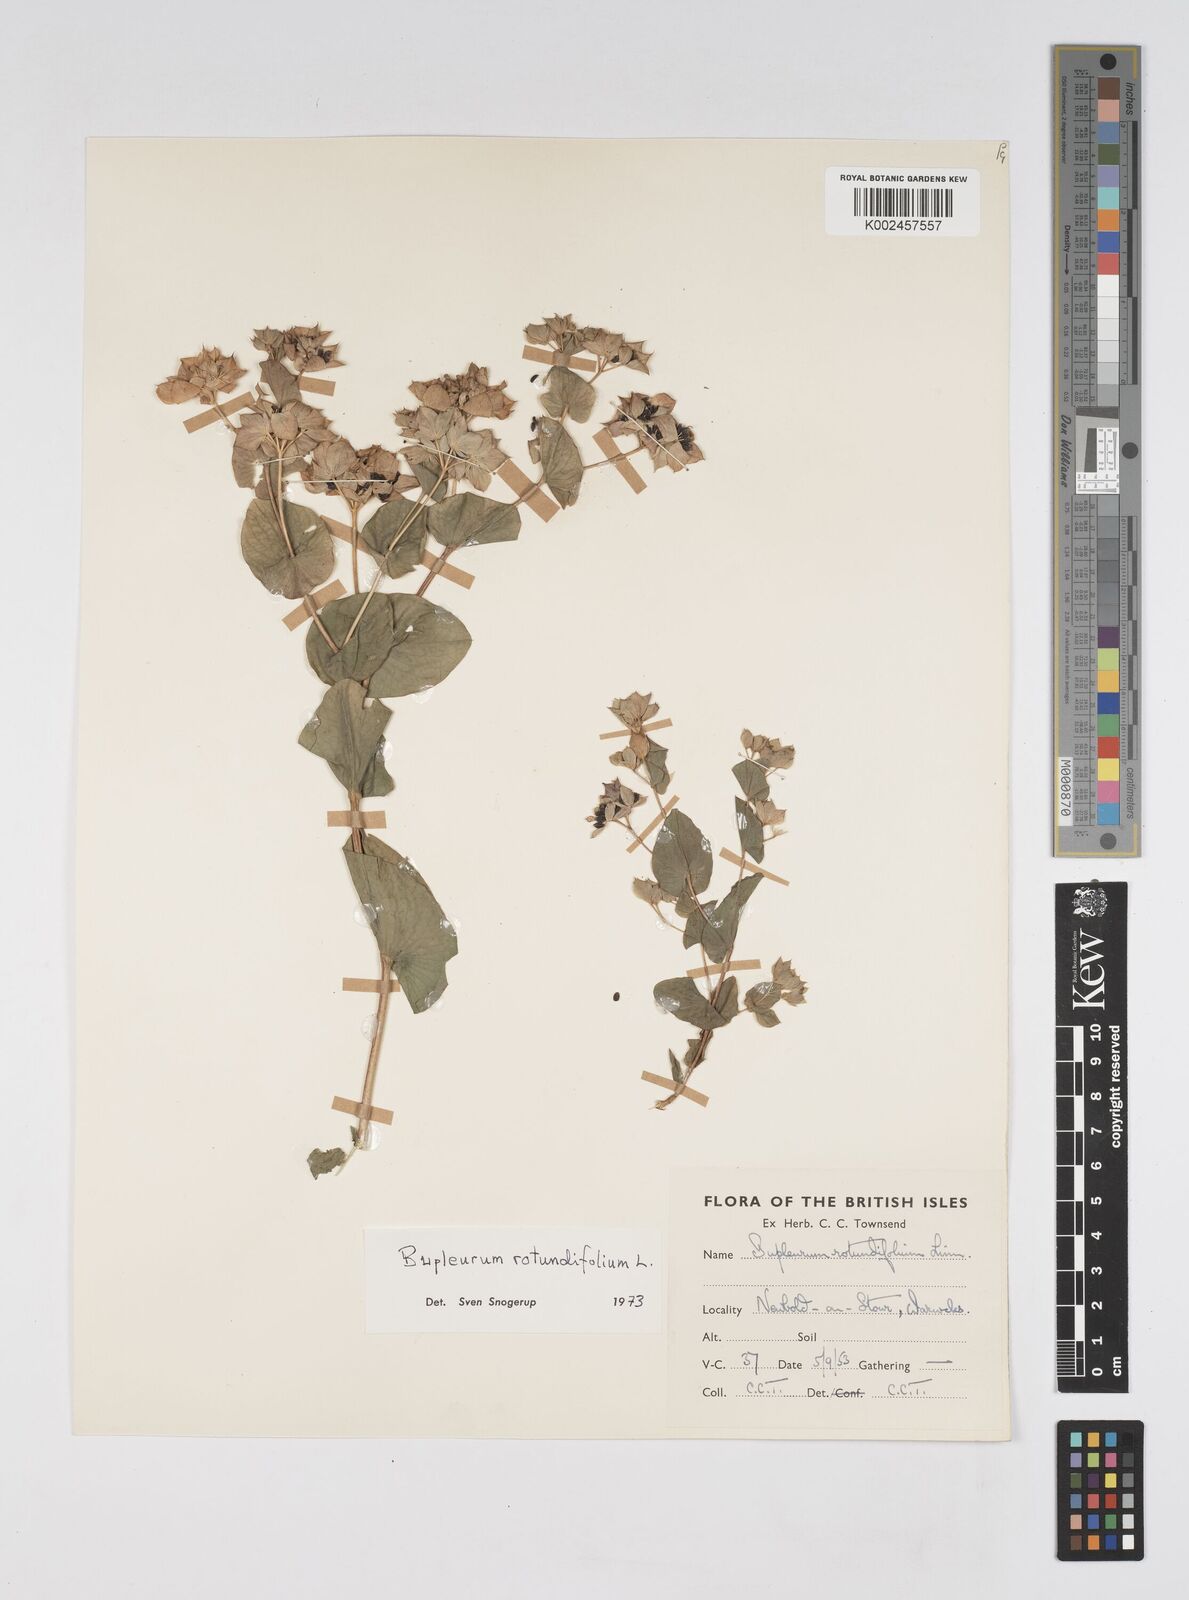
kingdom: Plantae
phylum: Tracheophyta
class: Magnoliopsida
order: Apiales
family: Apiaceae
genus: Bupleurum
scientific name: Bupleurum rotundifolium
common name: Thorow-wax
